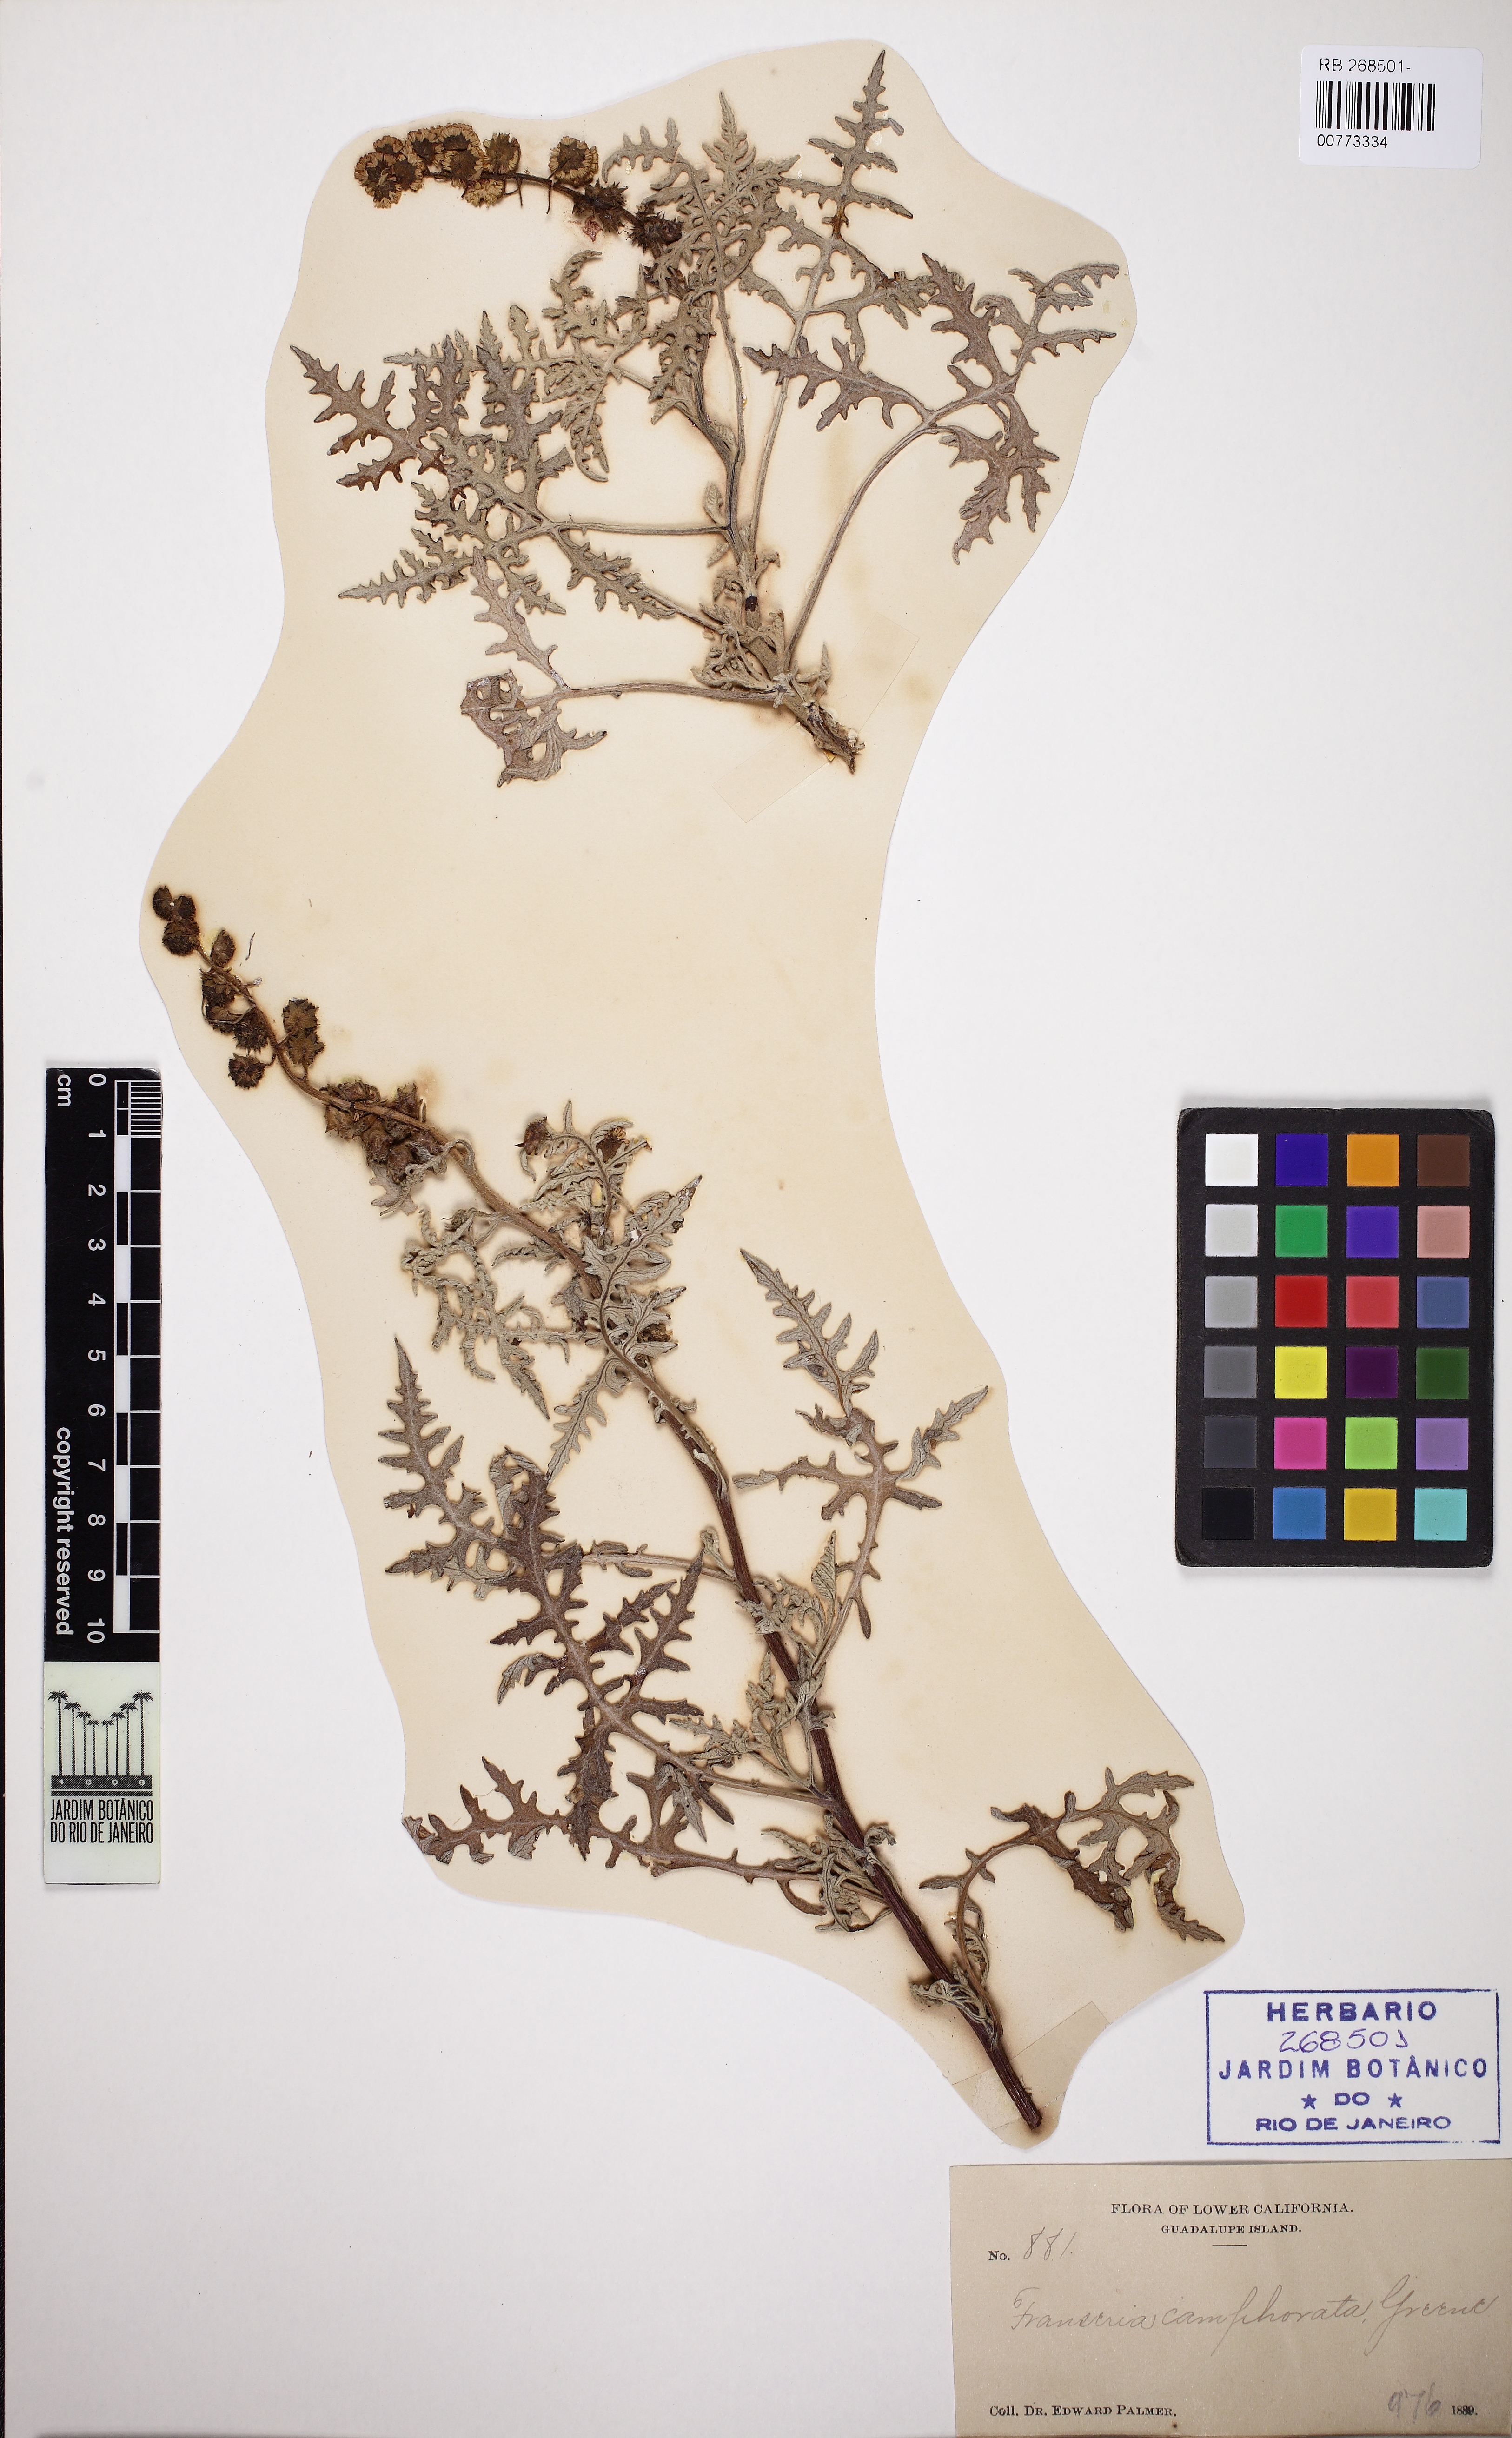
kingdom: Plantae
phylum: Tracheophyta
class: Magnoliopsida
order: Asterales
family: Asteraceae
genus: Ambrosia
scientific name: Ambrosia camphorata
